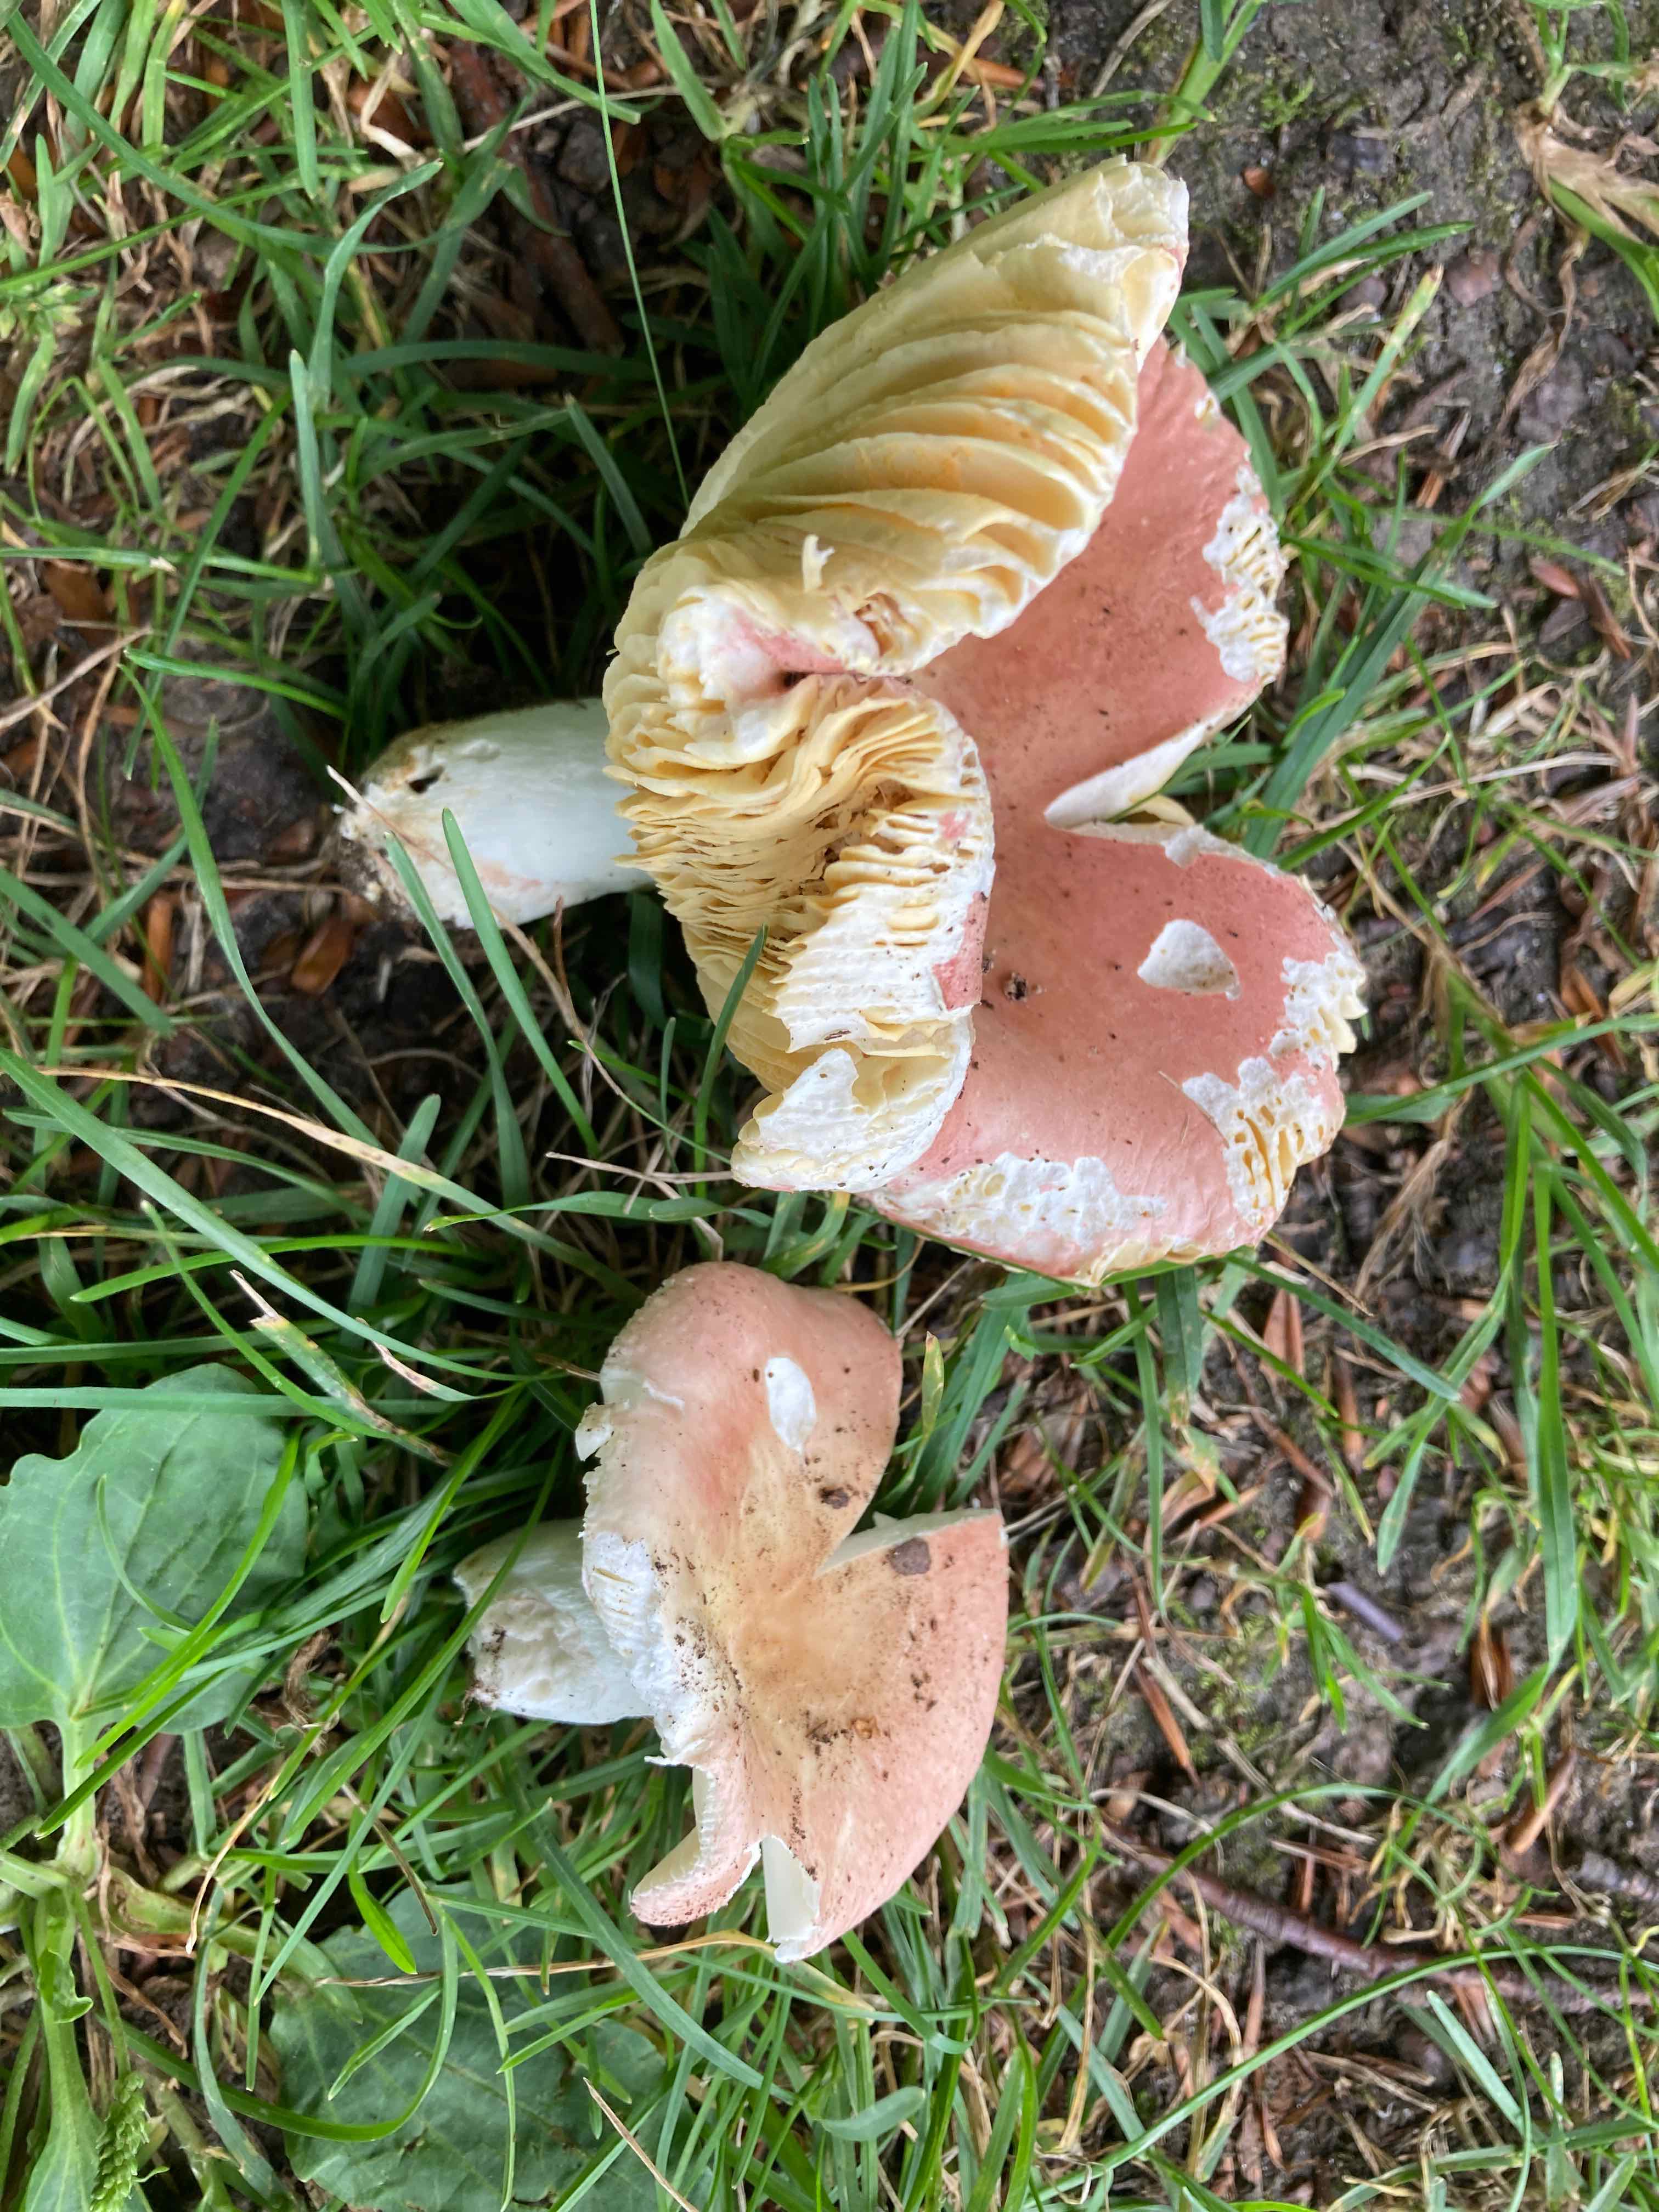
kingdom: Fungi
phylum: Basidiomycota
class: Agaricomycetes
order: Russulales
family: Russulaceae
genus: Russula
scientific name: Russula veternosa
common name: blødkødet skørhat
